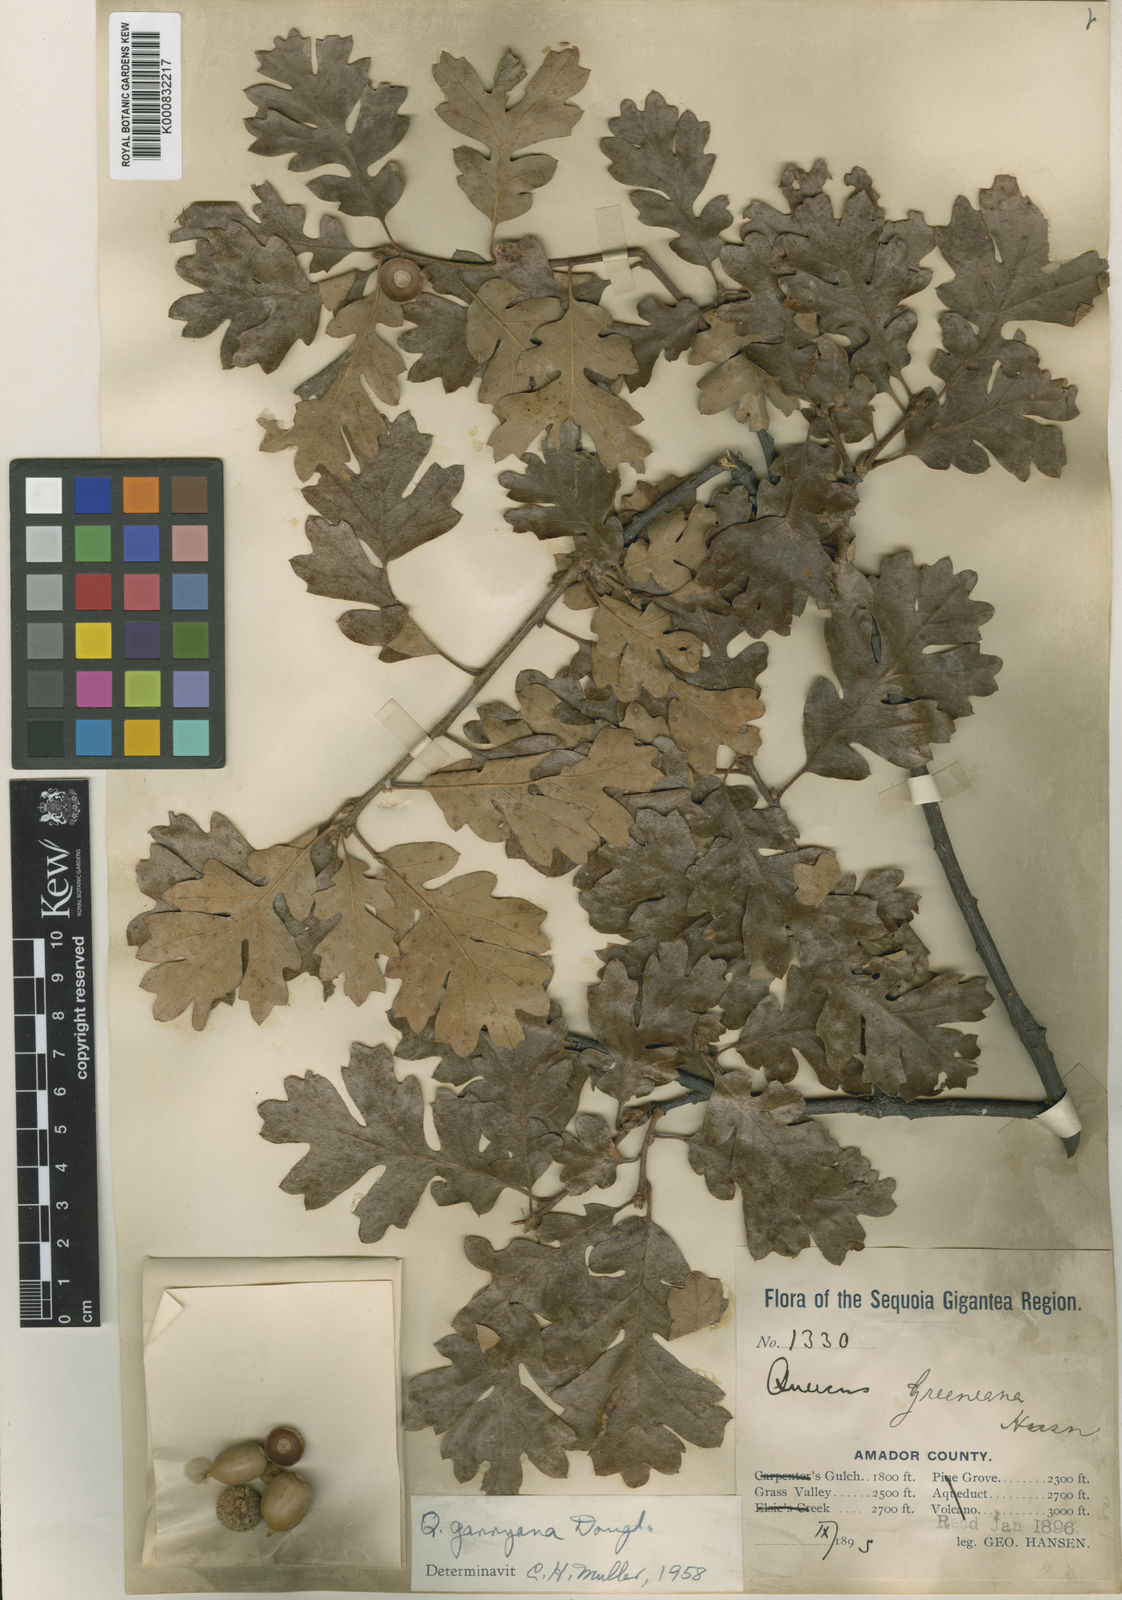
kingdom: Plantae
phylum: Tracheophyta
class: Magnoliopsida
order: Fagales
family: Fagaceae
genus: Quercus
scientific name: Quercus garryana
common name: Garry oak
